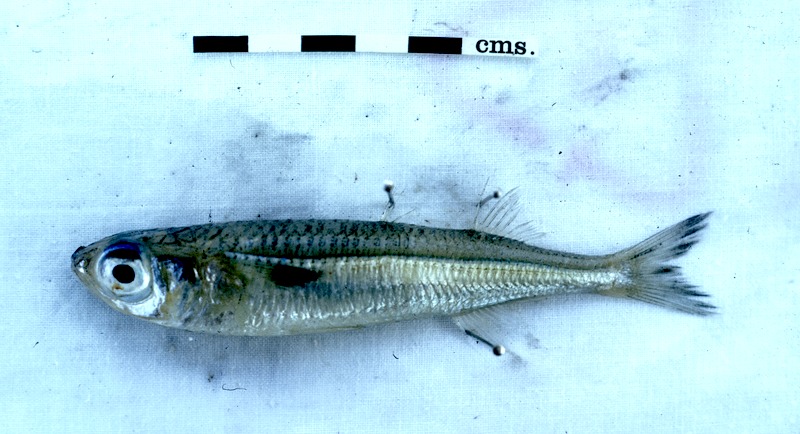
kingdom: Animalia
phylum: Chordata
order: Atheriniformes
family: Atherinidae
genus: Atherinomorus
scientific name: Atherinomorus lacunosus
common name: Hardyhead silverside
